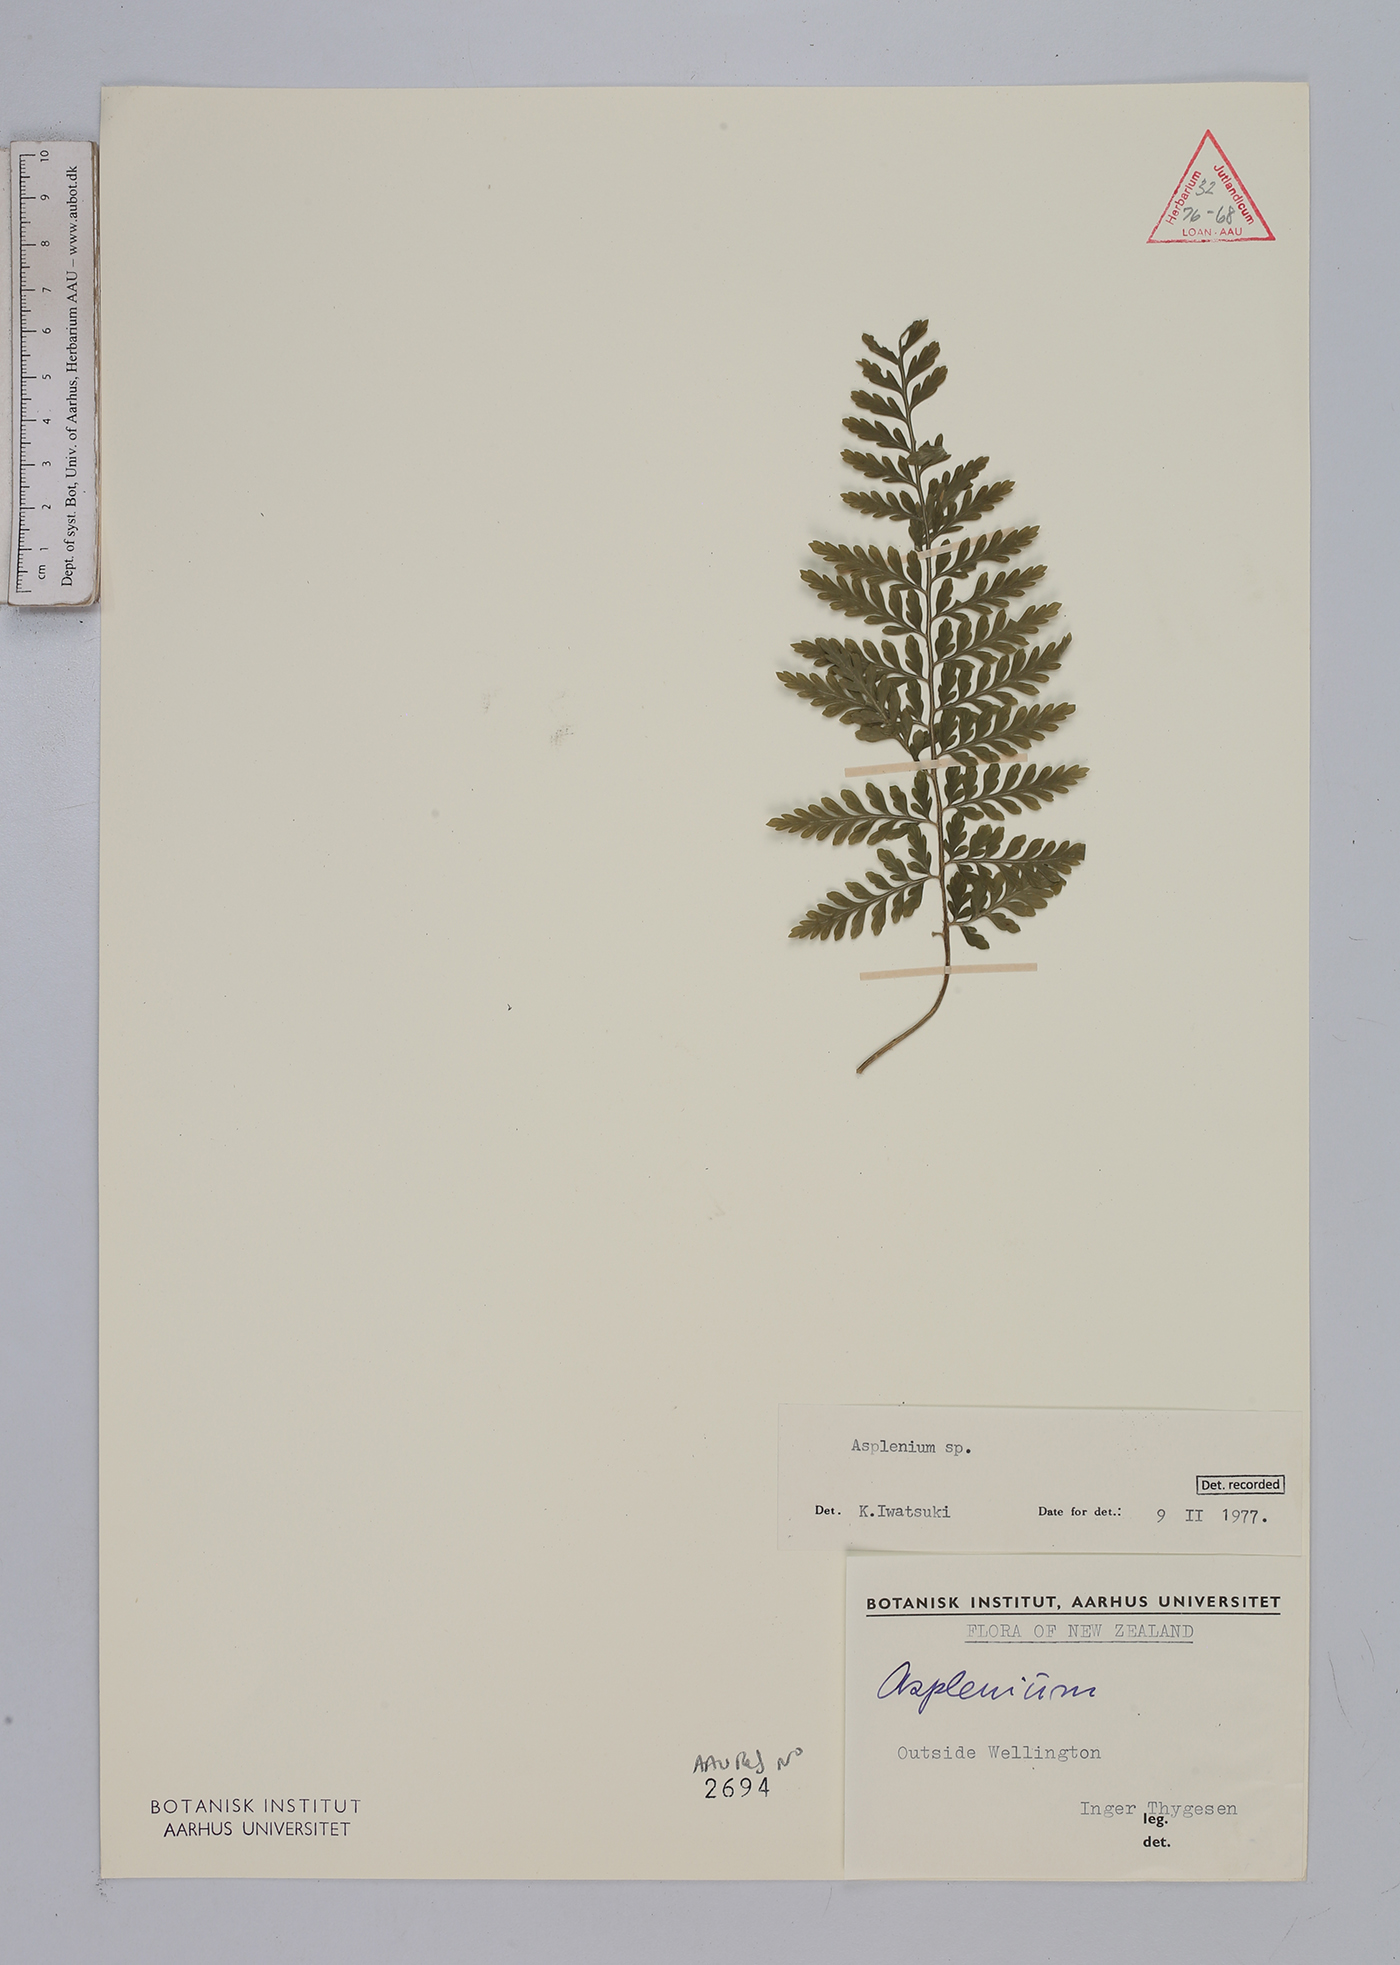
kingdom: Plantae
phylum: Tracheophyta
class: Polypodiopsida
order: Polypodiales
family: Aspleniaceae
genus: Asplenium
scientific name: Asplenium
